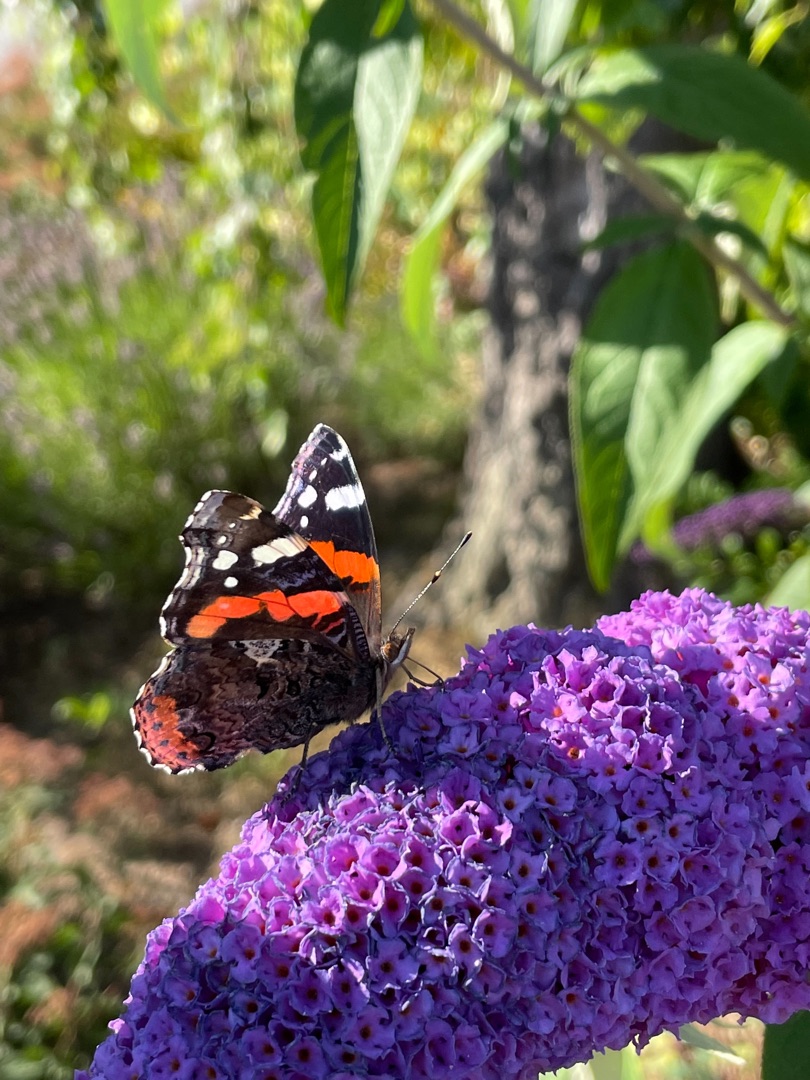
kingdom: Animalia
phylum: Arthropoda
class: Insecta
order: Lepidoptera
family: Nymphalidae
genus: Vanessa
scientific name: Vanessa atalanta
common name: Admiral
